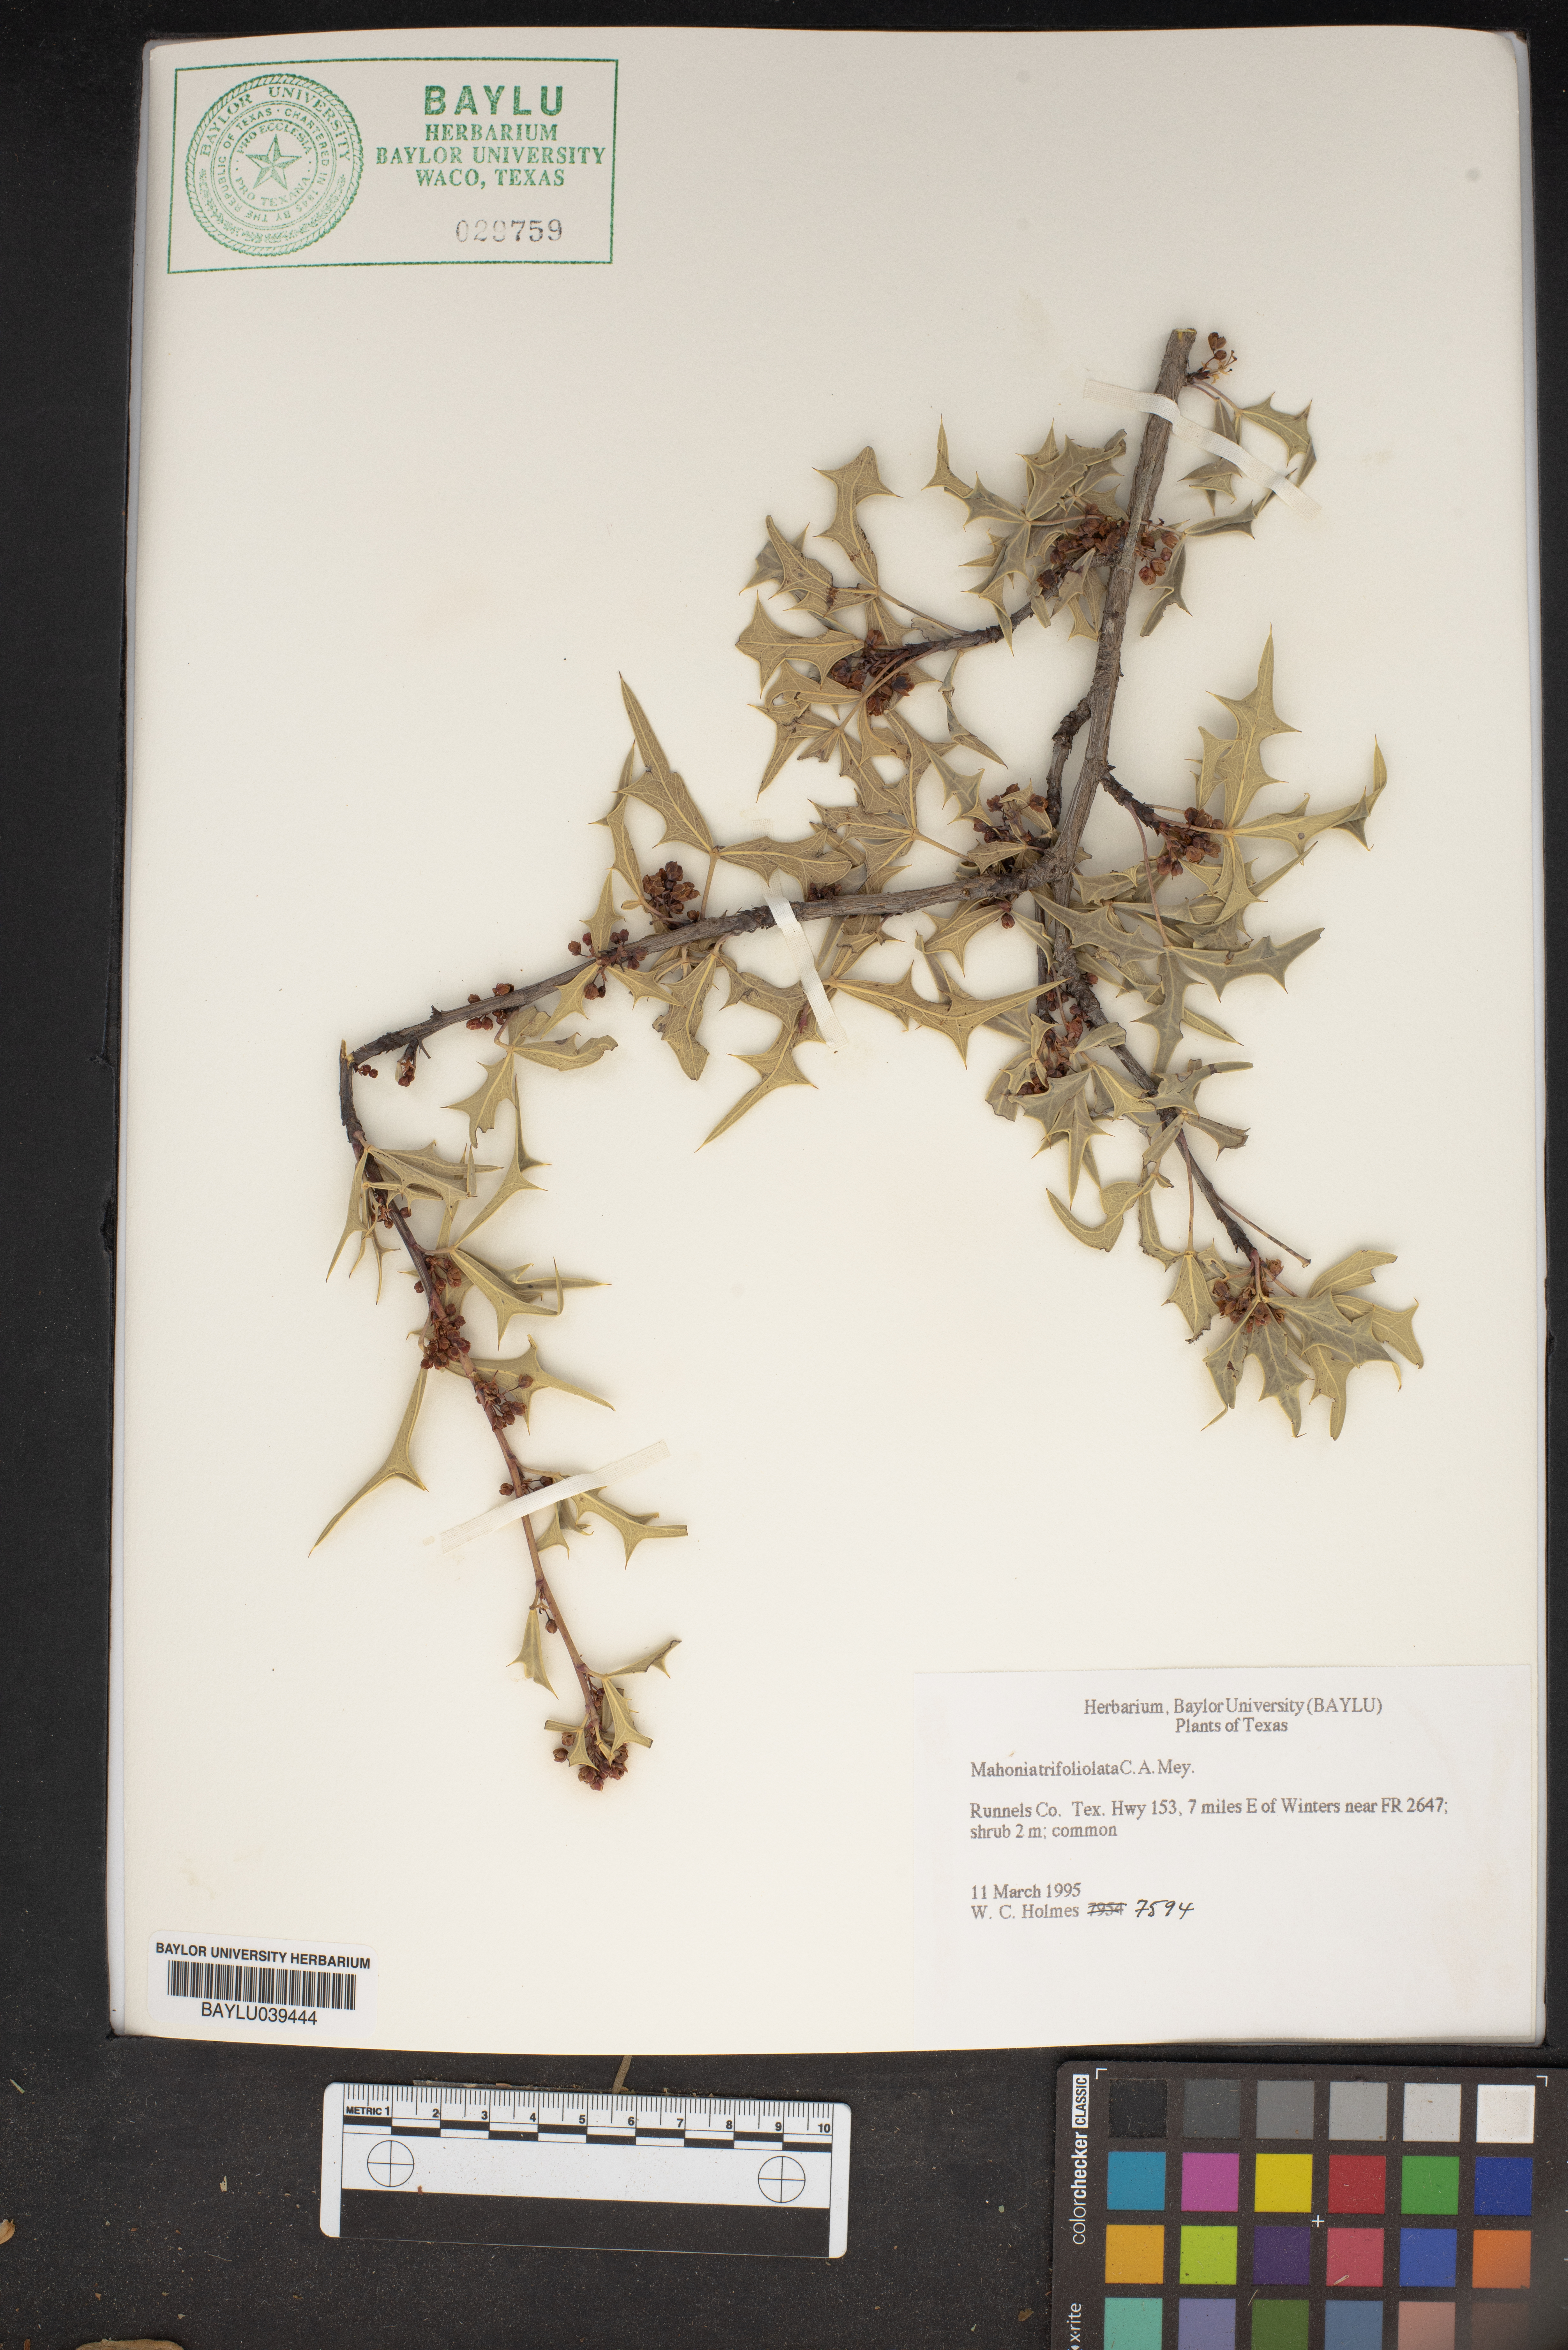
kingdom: Plantae
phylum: Tracheophyta
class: Magnoliopsida
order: Ranunculales
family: Berberidaceae
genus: Mahonia
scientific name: Mahonia trifolia
